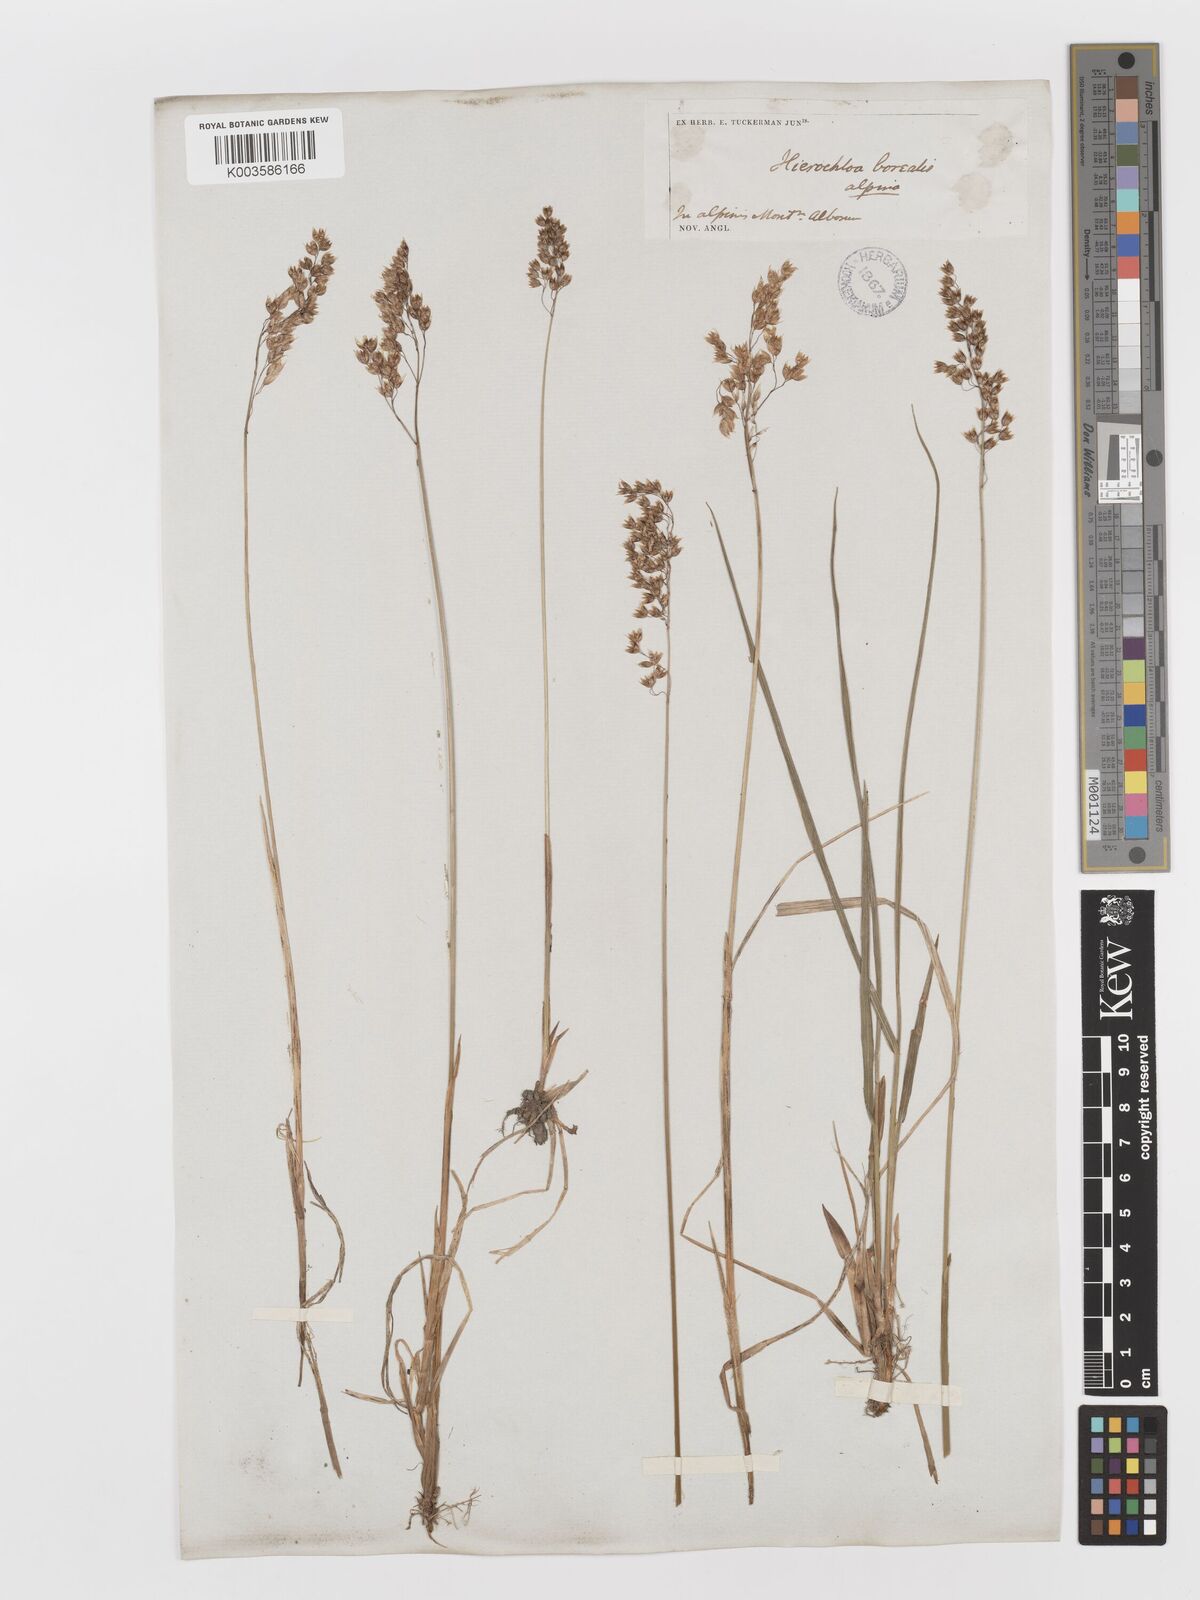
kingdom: Plantae
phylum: Tracheophyta
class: Liliopsida
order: Poales
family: Poaceae
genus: Anthoxanthum
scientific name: Anthoxanthum nitens
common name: Holy grass
